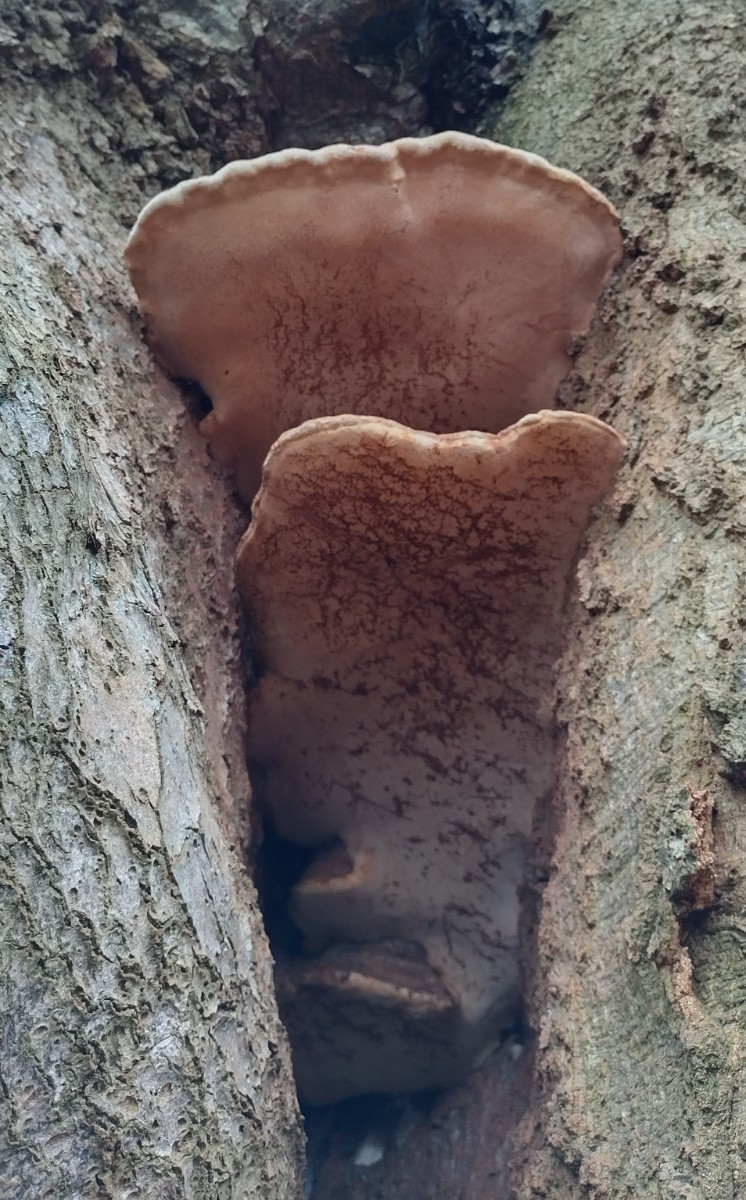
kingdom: Fungi
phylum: Basidiomycota
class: Agaricomycetes
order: Polyporales
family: Polyporaceae
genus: Ganoderma
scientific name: Ganoderma adspersum
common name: grov lakporesvamp
